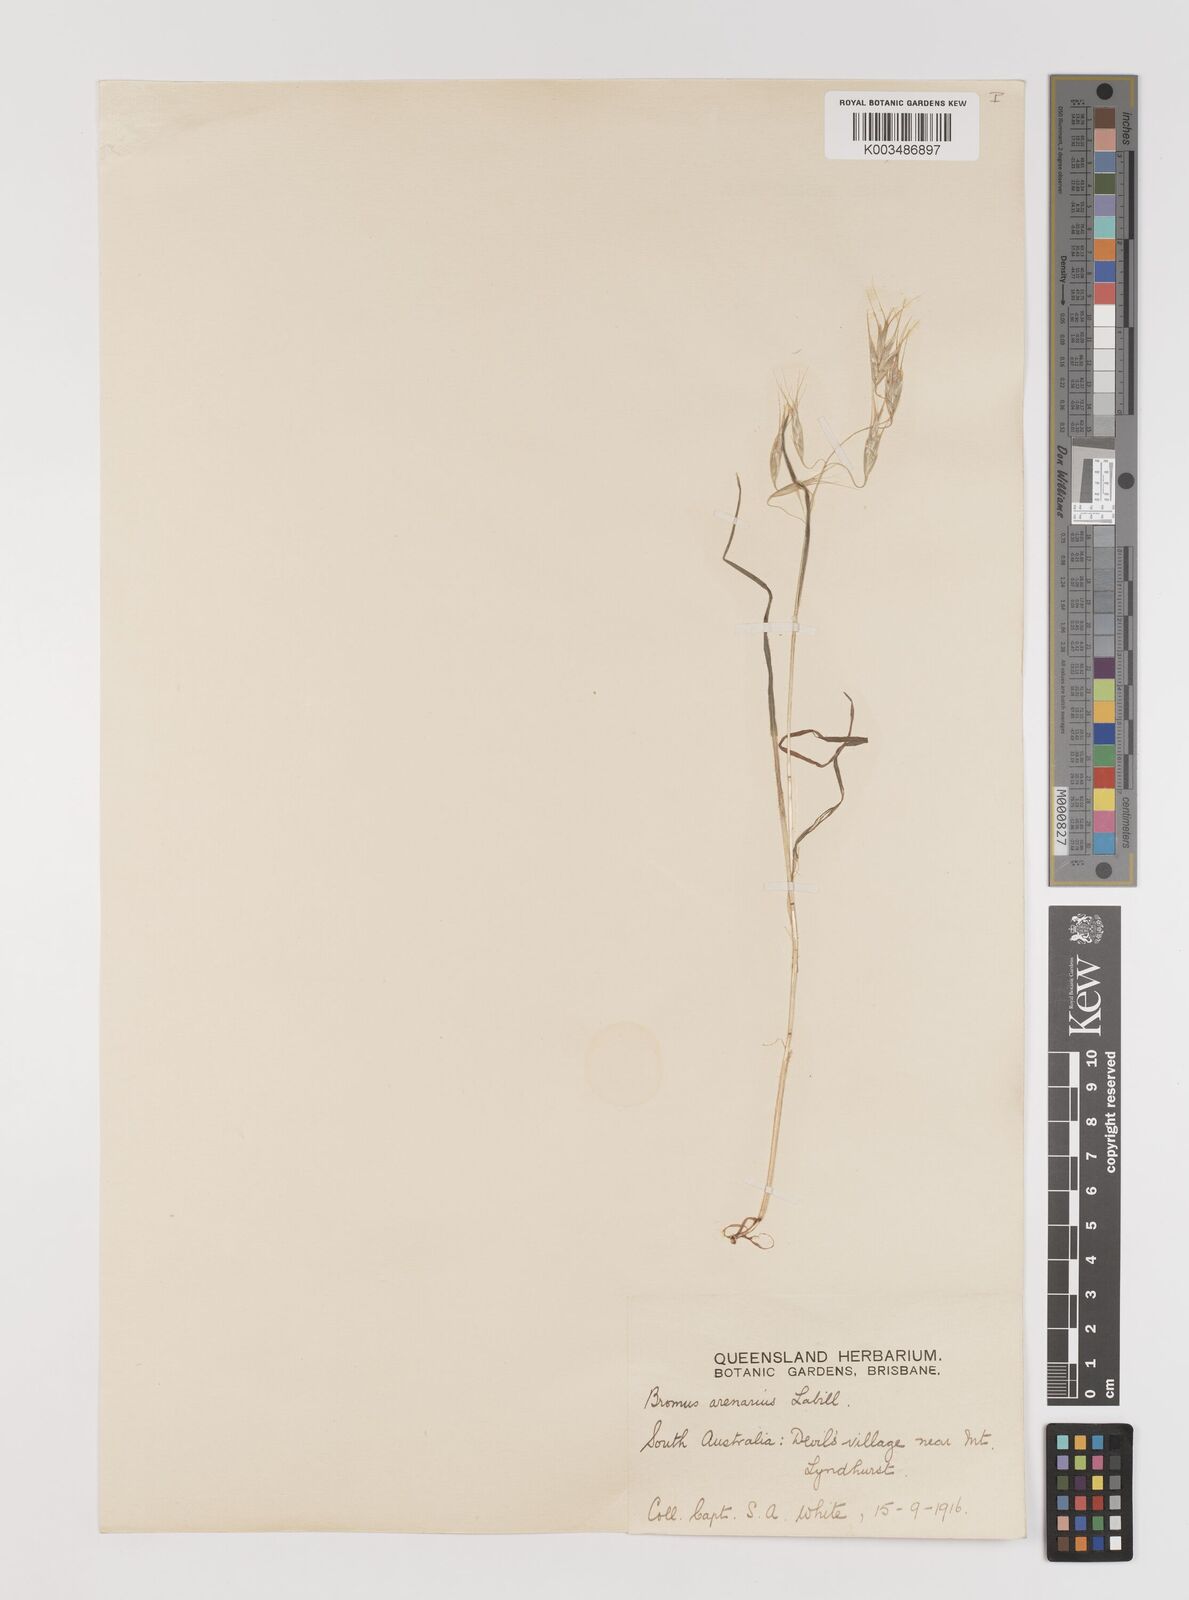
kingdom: Plantae
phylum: Tracheophyta
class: Liliopsida
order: Poales
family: Poaceae
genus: Bromus
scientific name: Bromus arenarius
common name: Australian brome
